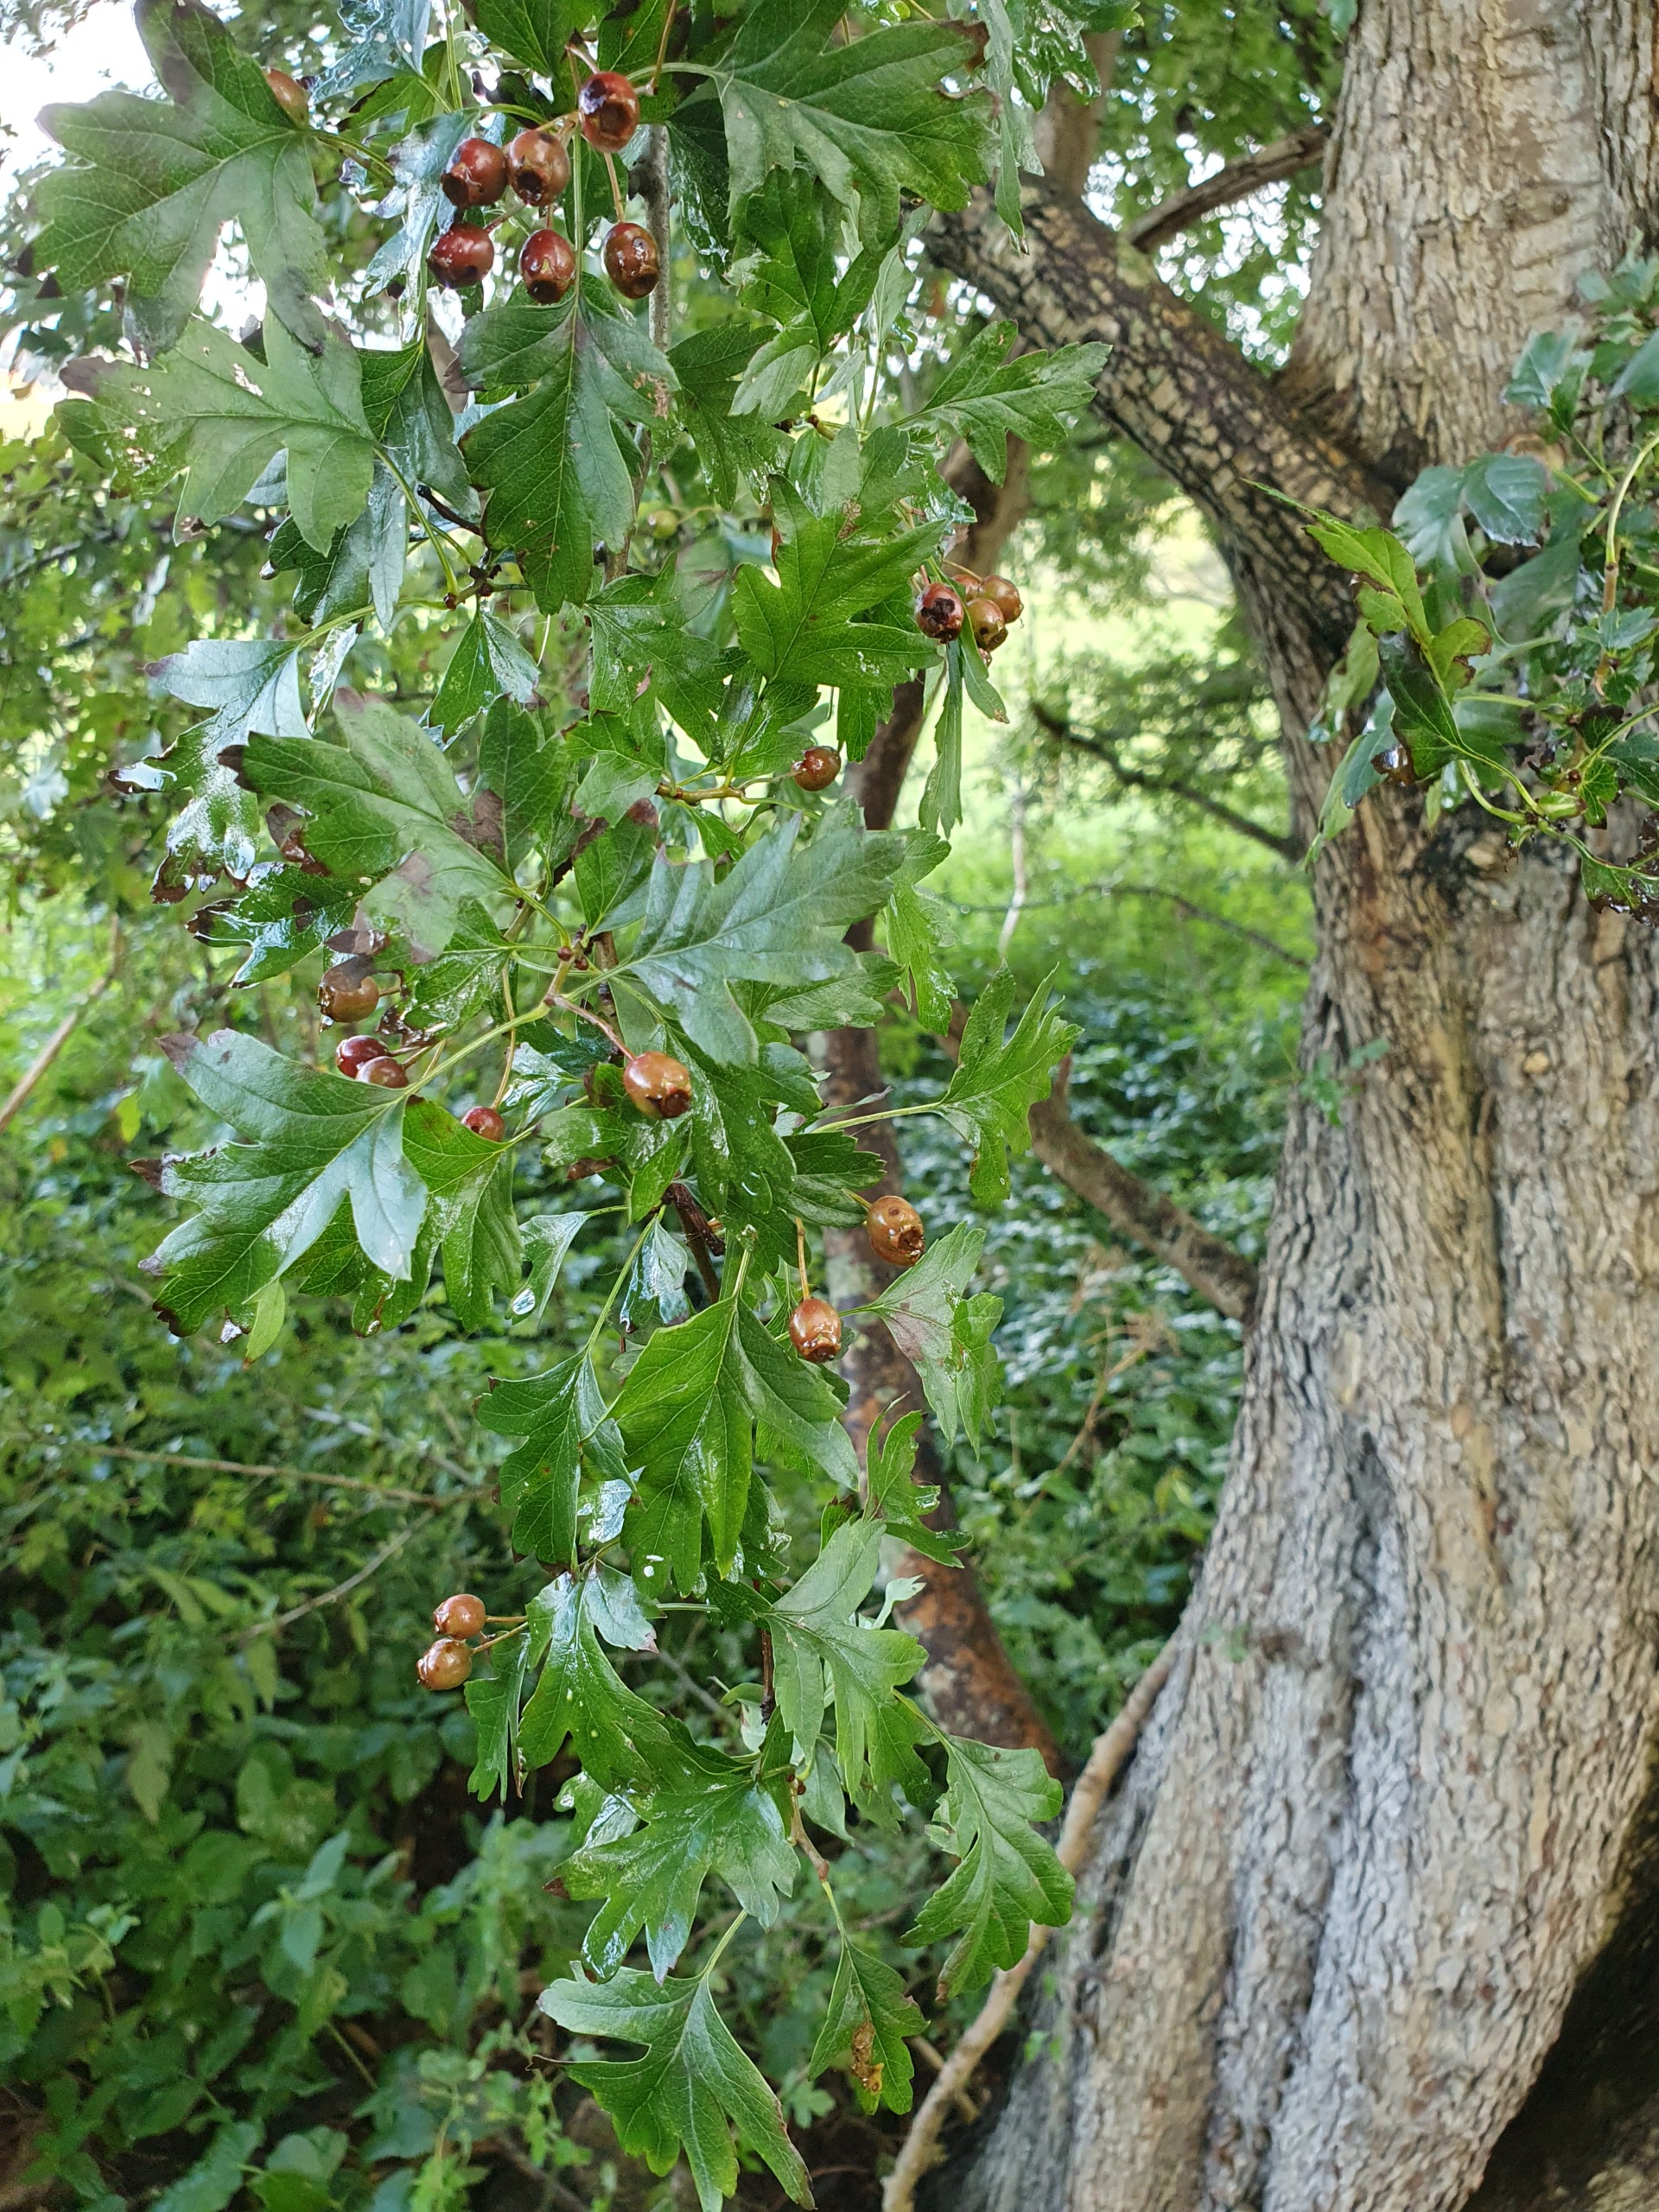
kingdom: Plantae
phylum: Tracheophyta
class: Magnoliopsida
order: Rosales
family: Rosaceae
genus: Crataegus
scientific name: Crataegus monogyna
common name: Engriflet hvidtjørn
